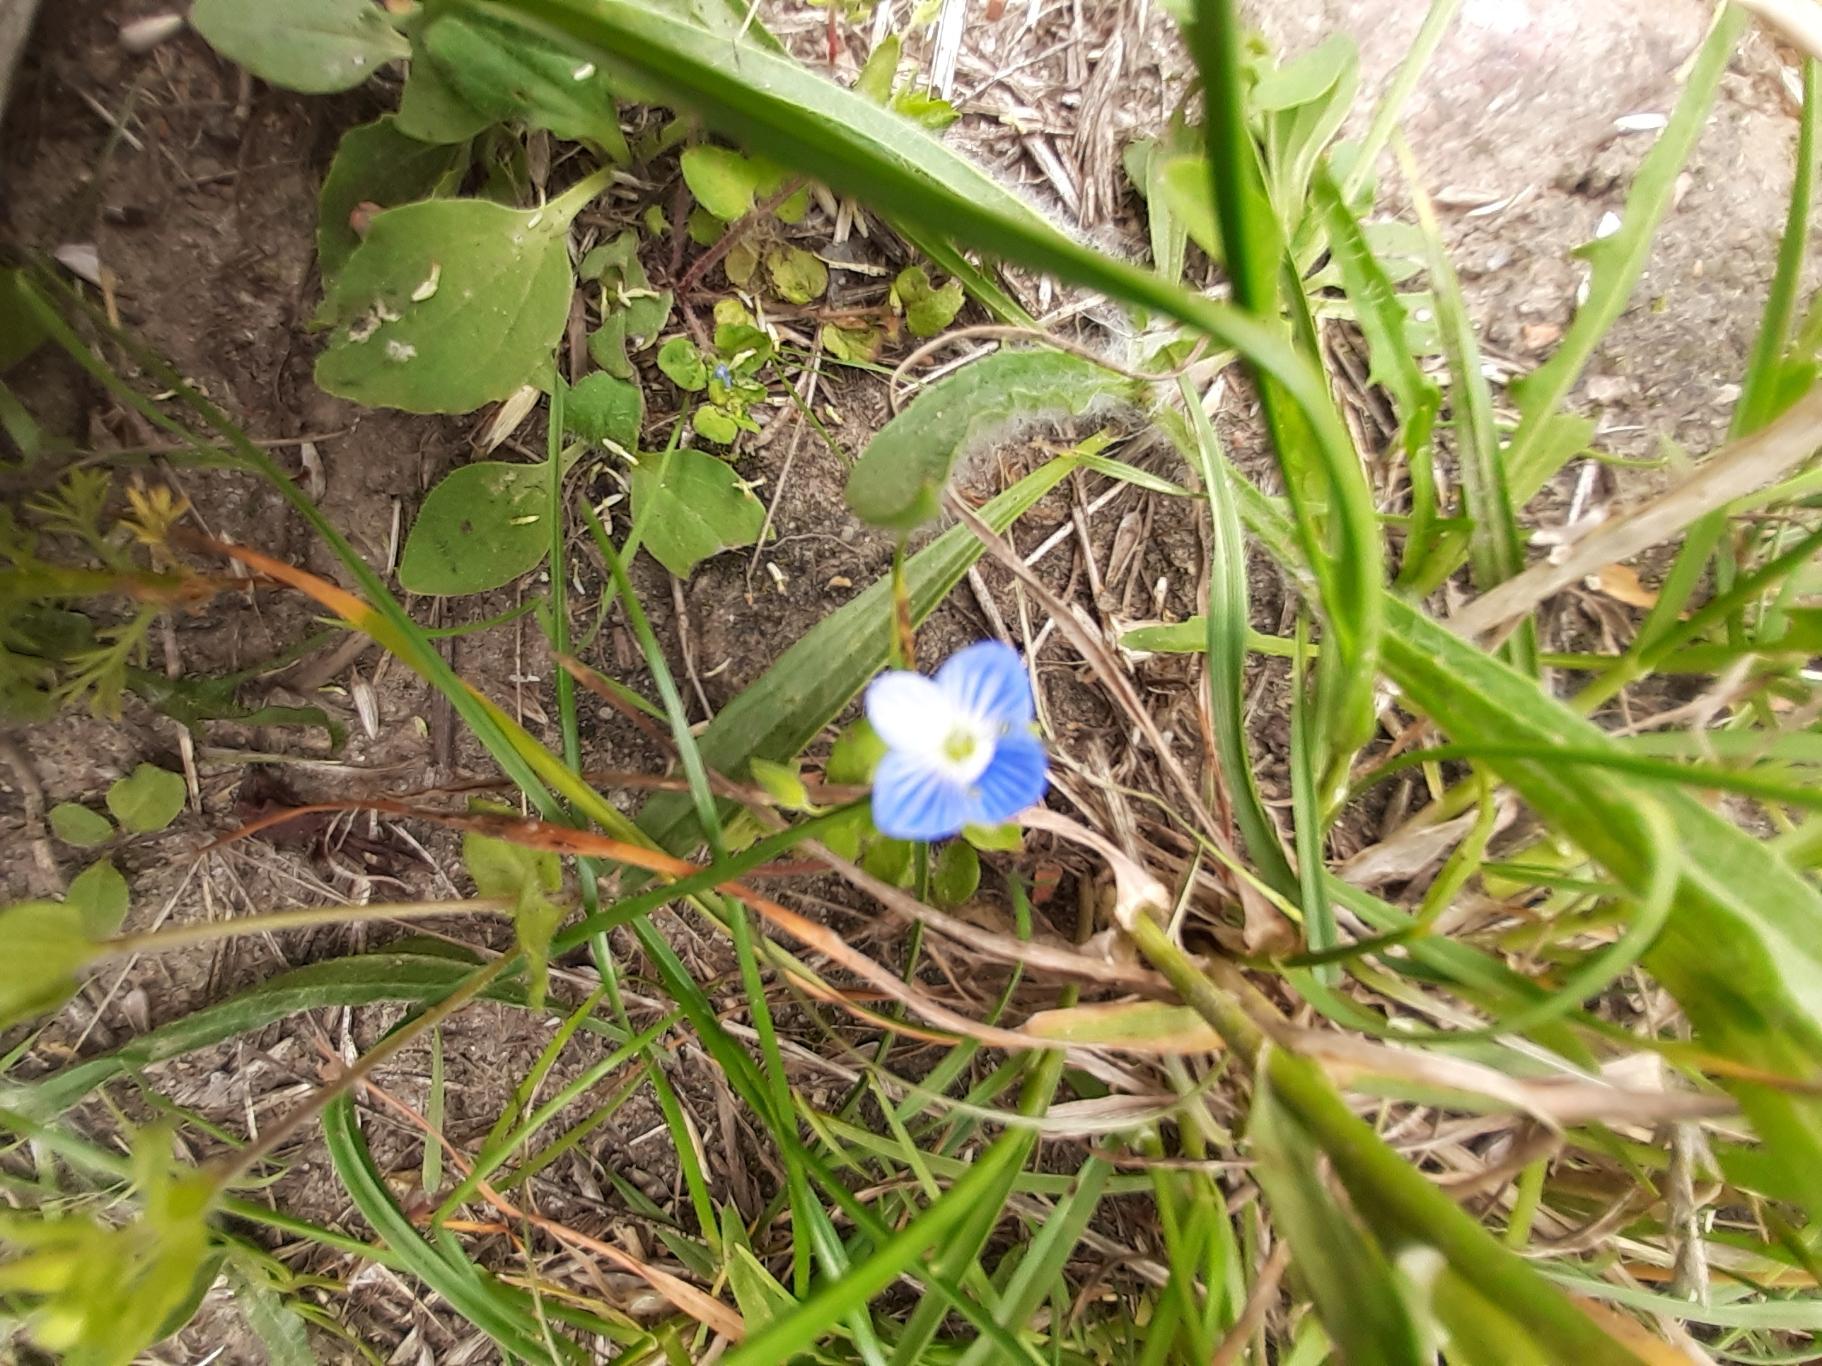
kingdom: Plantae
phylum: Tracheophyta
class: Magnoliopsida
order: Lamiales
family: Plantaginaceae
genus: Veronica
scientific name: Veronica persica
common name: Storkronet ærenpris
